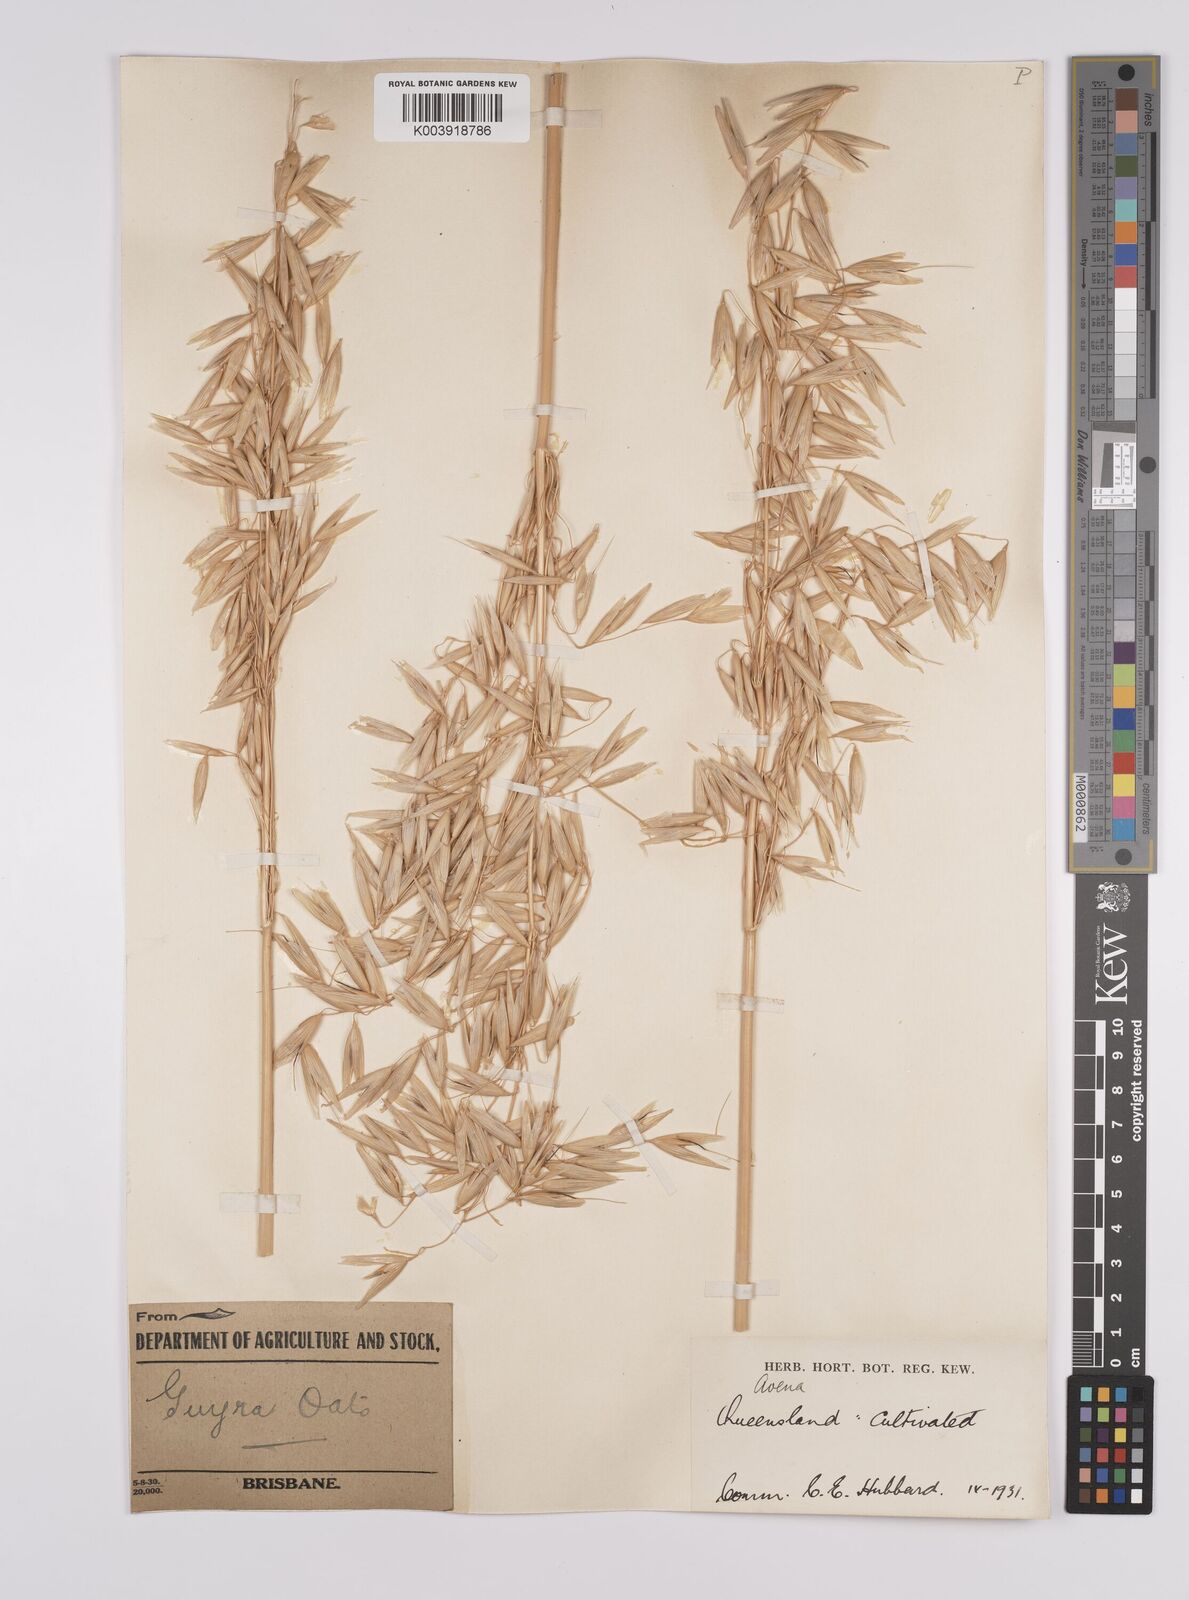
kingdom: Plantae
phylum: Tracheophyta
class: Liliopsida
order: Poales
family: Poaceae
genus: Avena
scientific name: Avena sativa
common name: Oat
